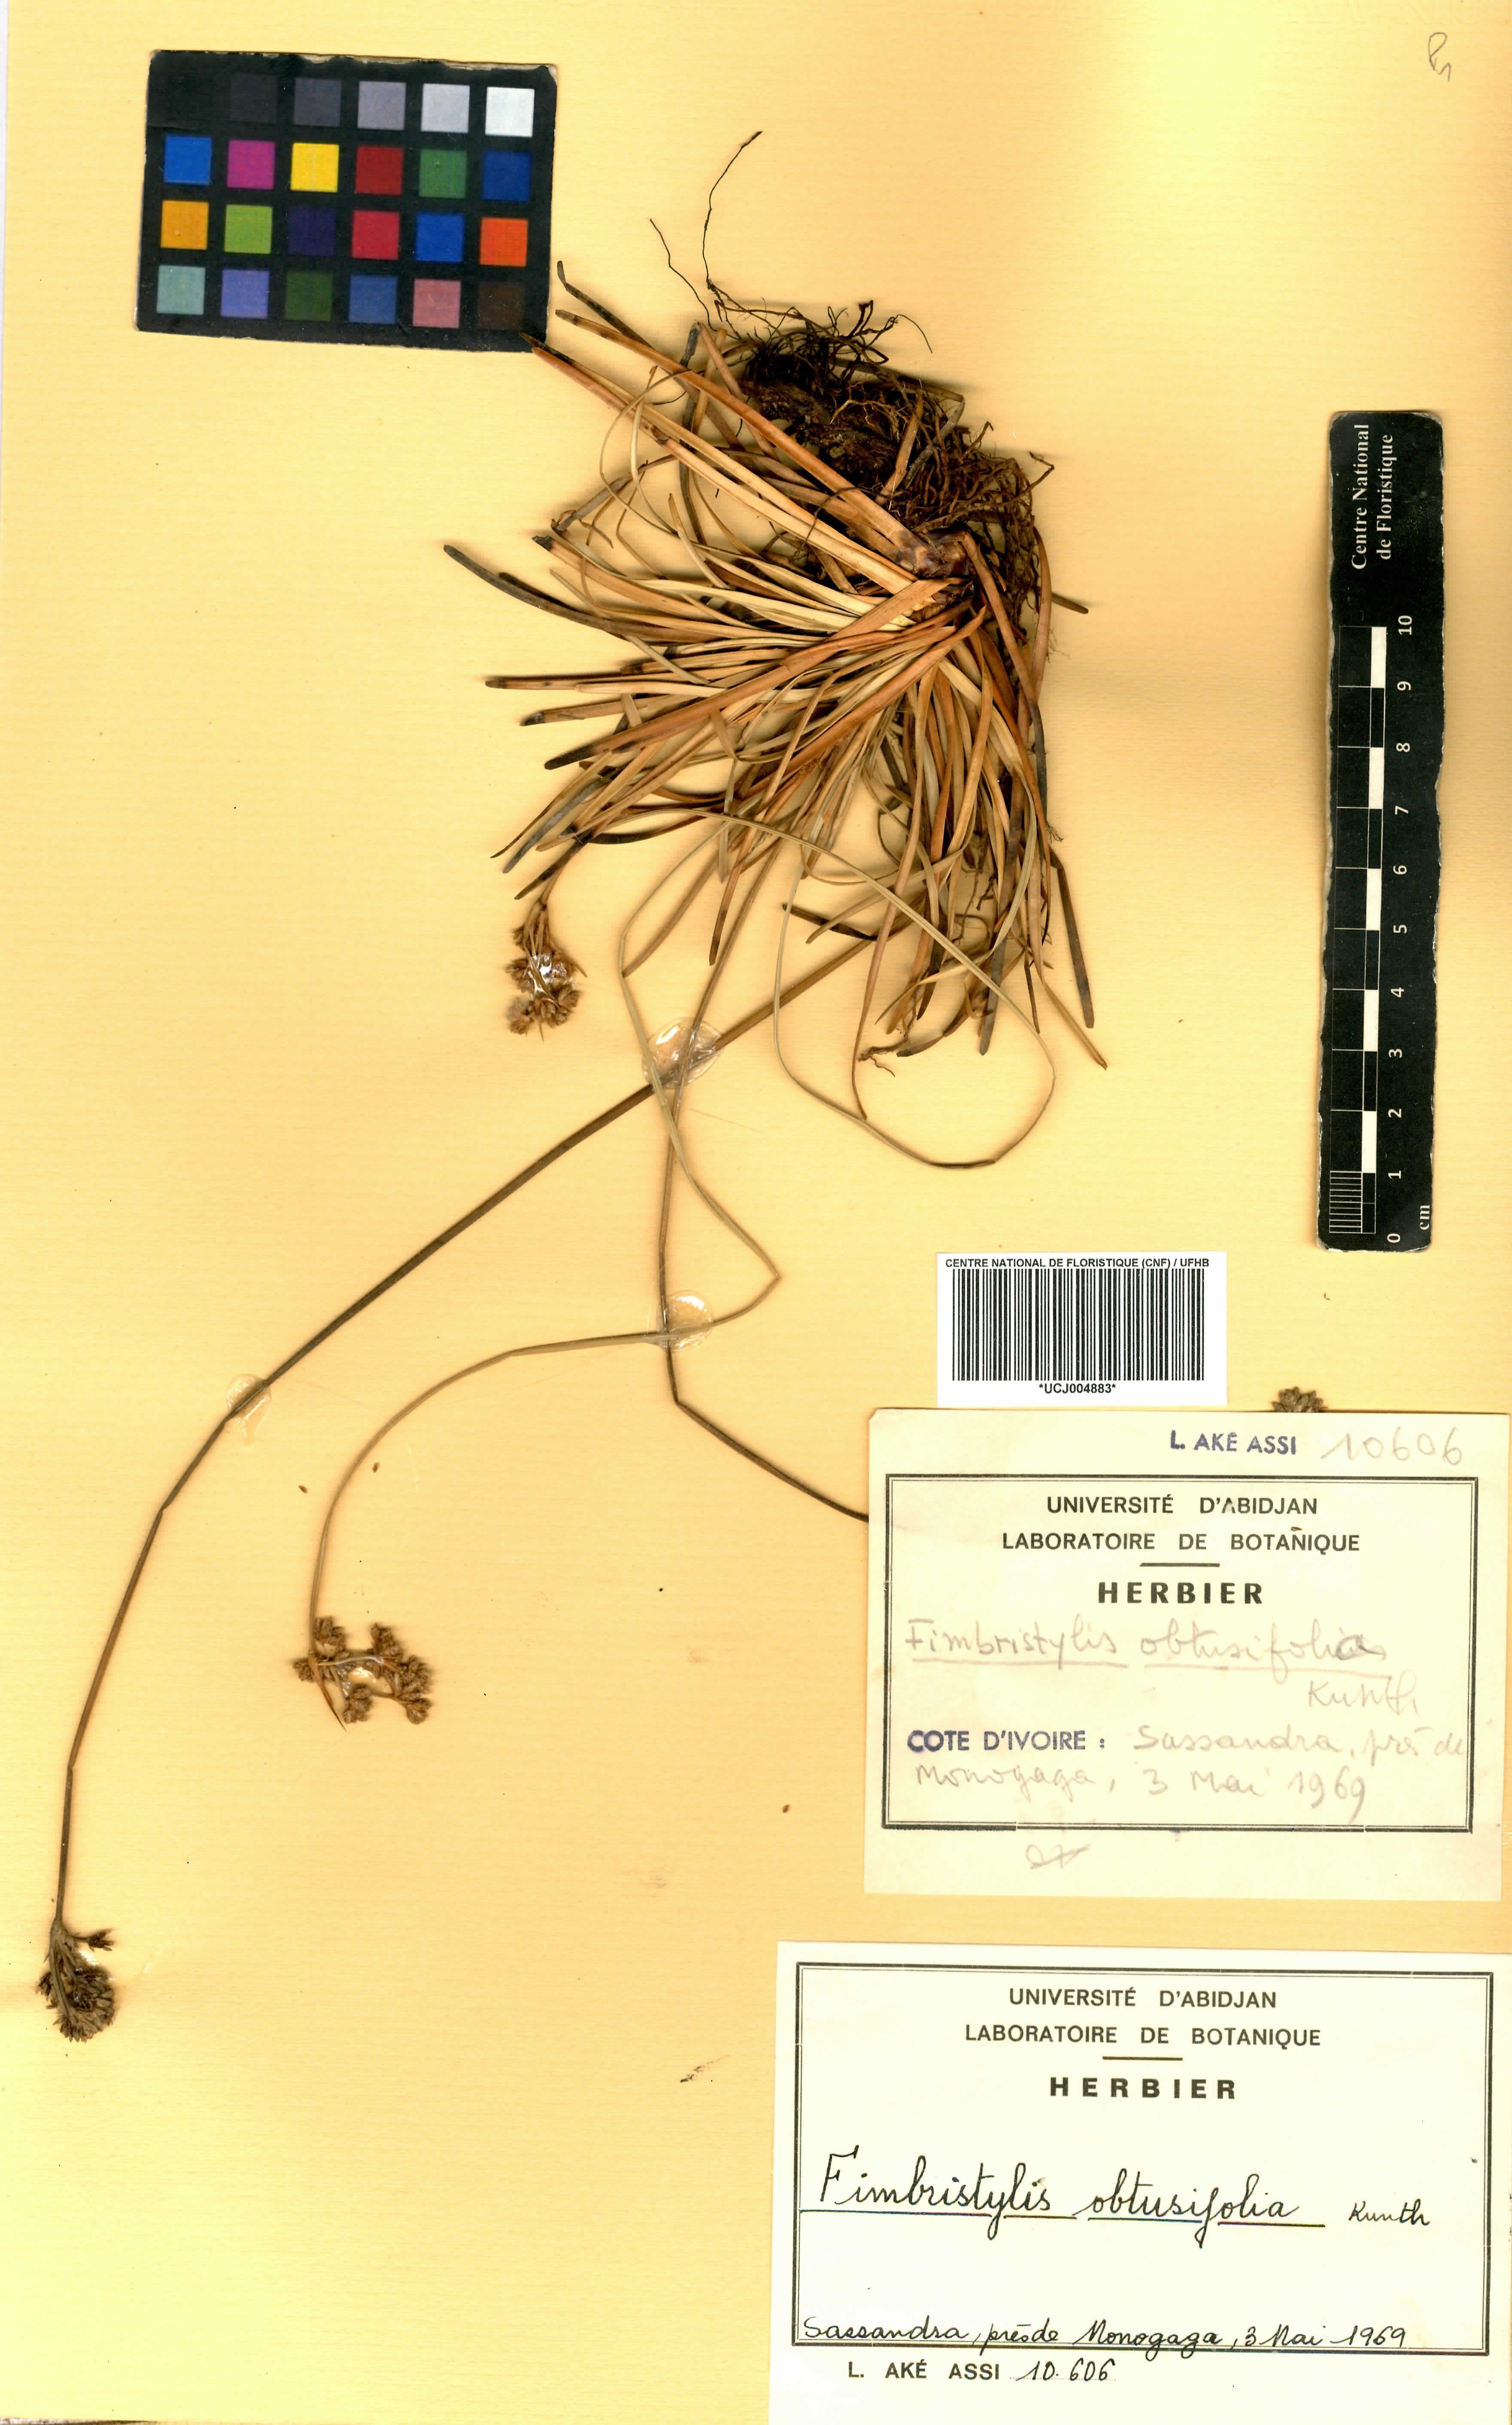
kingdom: Plantae
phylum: Tracheophyta
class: Liliopsida
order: Poales
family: Cyperaceae
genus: Fimbristylis
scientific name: Fimbristylis cymosa
